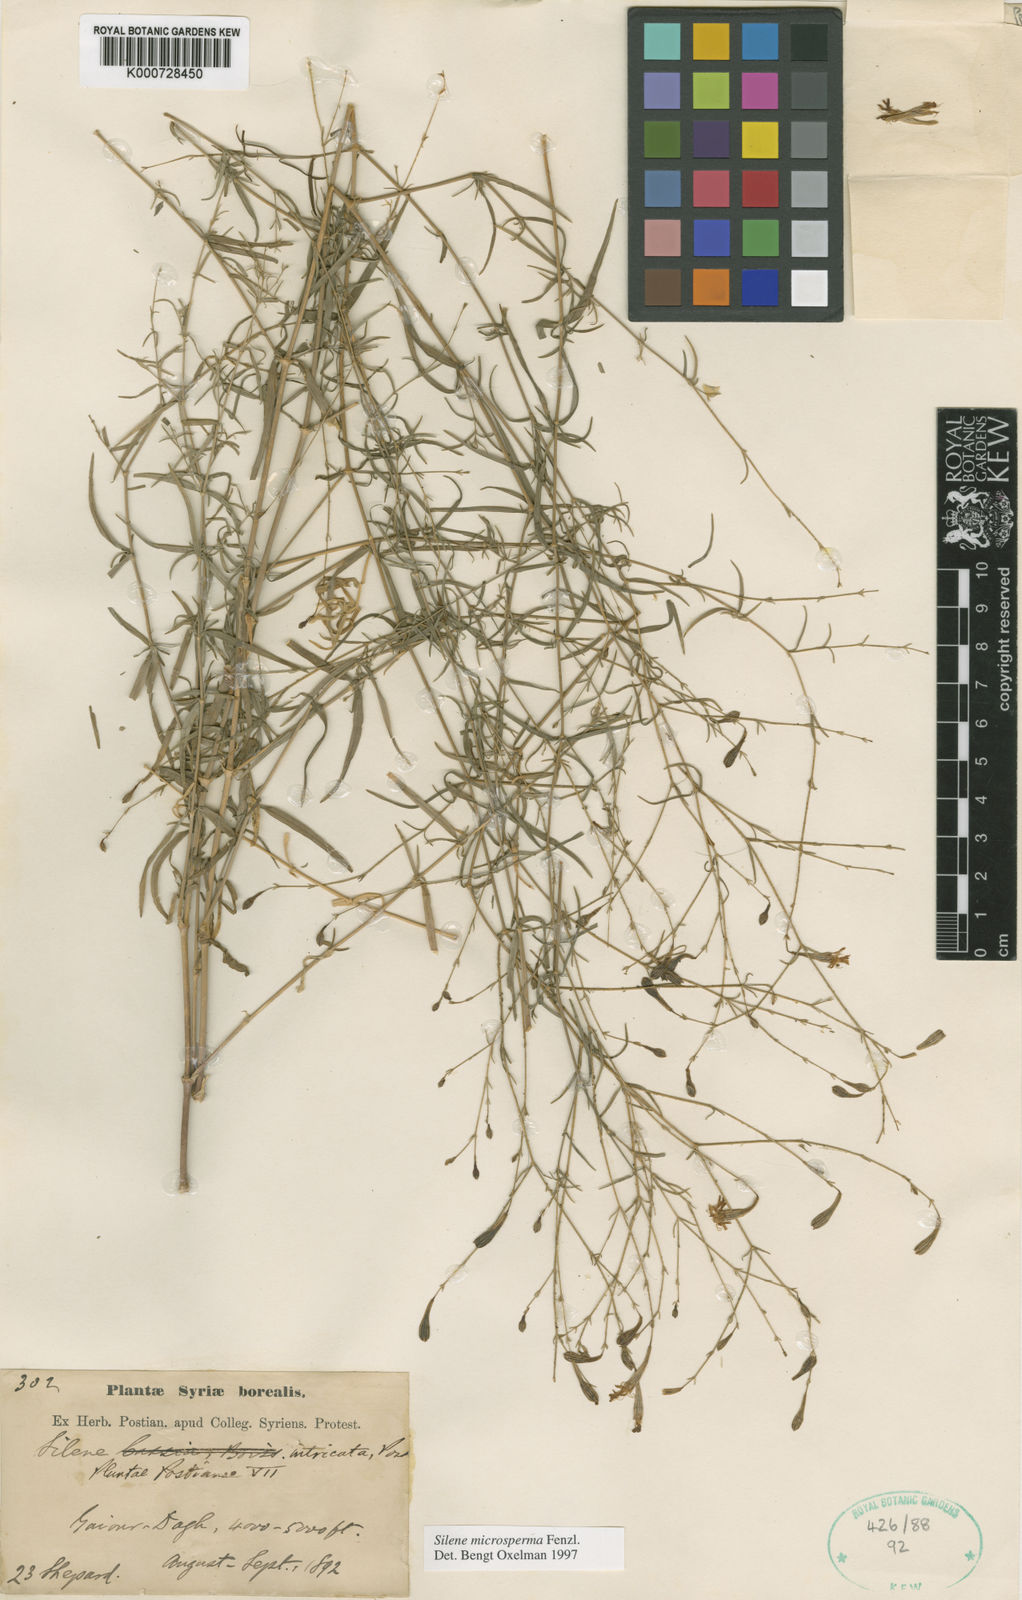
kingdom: Plantae
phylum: Tracheophyta
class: Magnoliopsida
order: Caryophyllales
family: Caryophyllaceae
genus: Silene
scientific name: Silene microsperma
